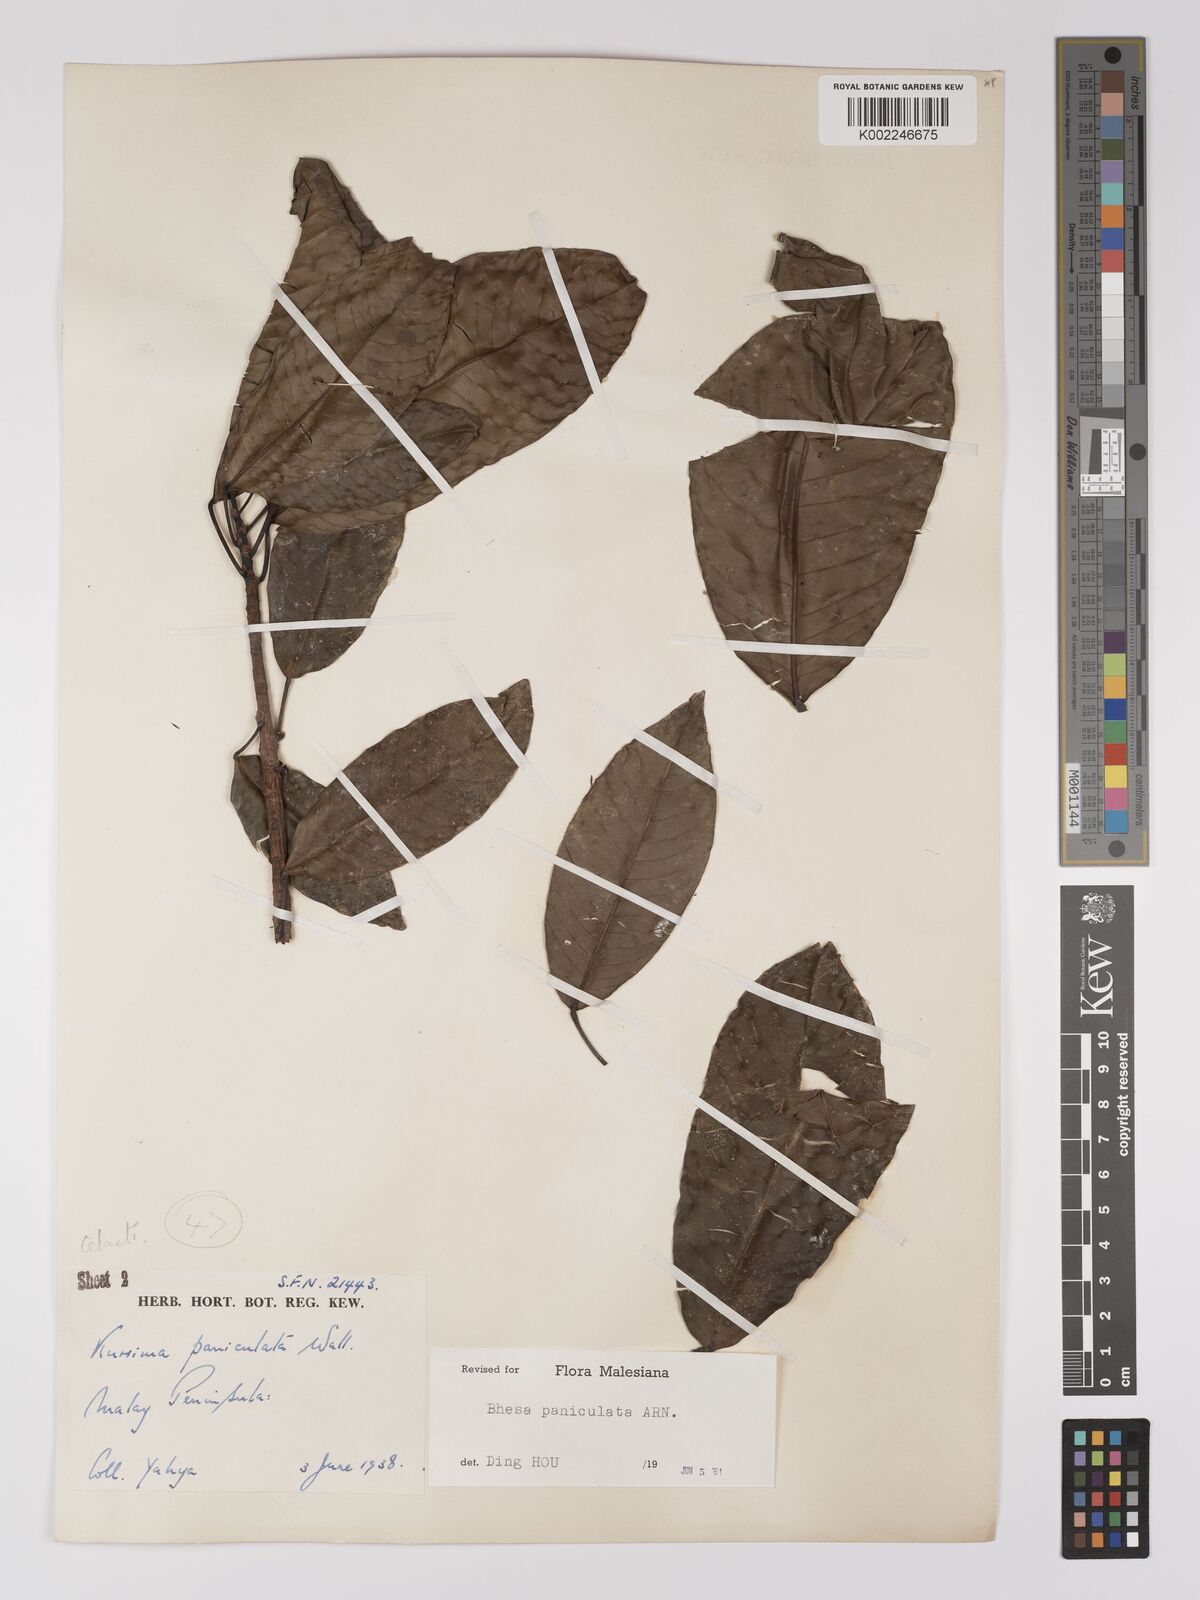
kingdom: Plantae
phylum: Tracheophyta
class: Magnoliopsida
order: Malpighiales
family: Centroplacaceae
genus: Bhesa
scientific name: Bhesa paniculata
